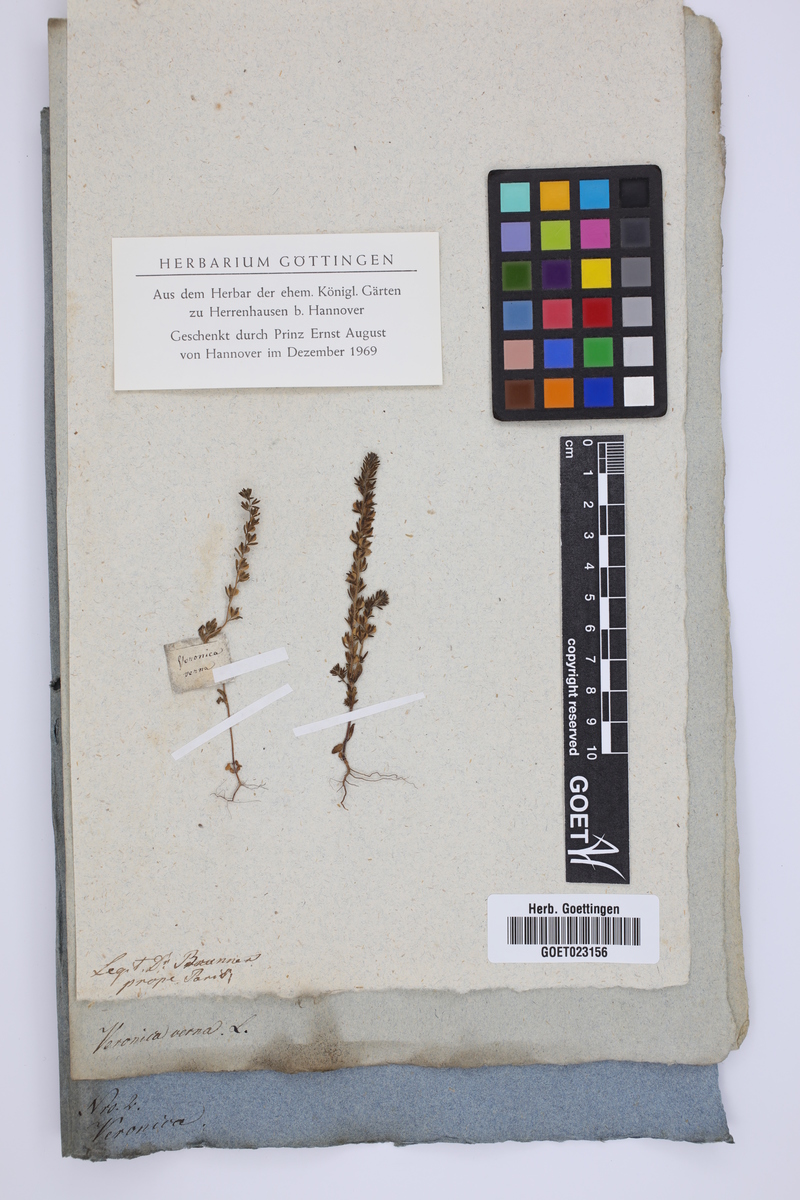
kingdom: Plantae
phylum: Tracheophyta
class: Magnoliopsida
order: Lamiales
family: Plantaginaceae
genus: Veronica
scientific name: Veronica verna
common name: Spring speedwell
